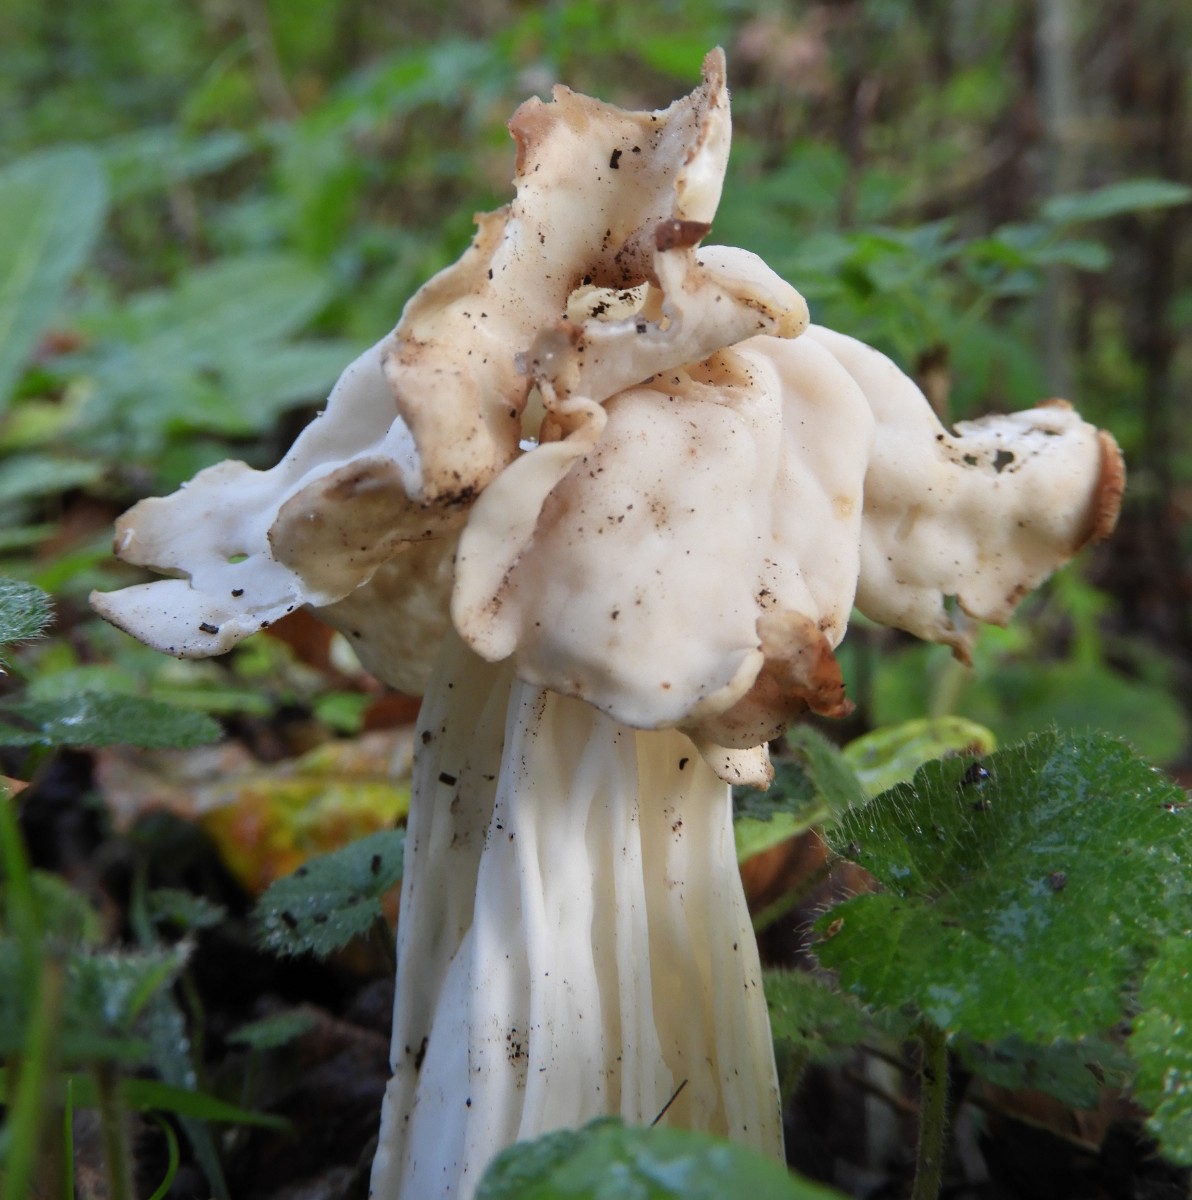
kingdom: Fungi
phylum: Ascomycota
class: Pezizomycetes
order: Pezizales
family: Helvellaceae
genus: Helvella
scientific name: Helvella crispa
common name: kruset foldhat
